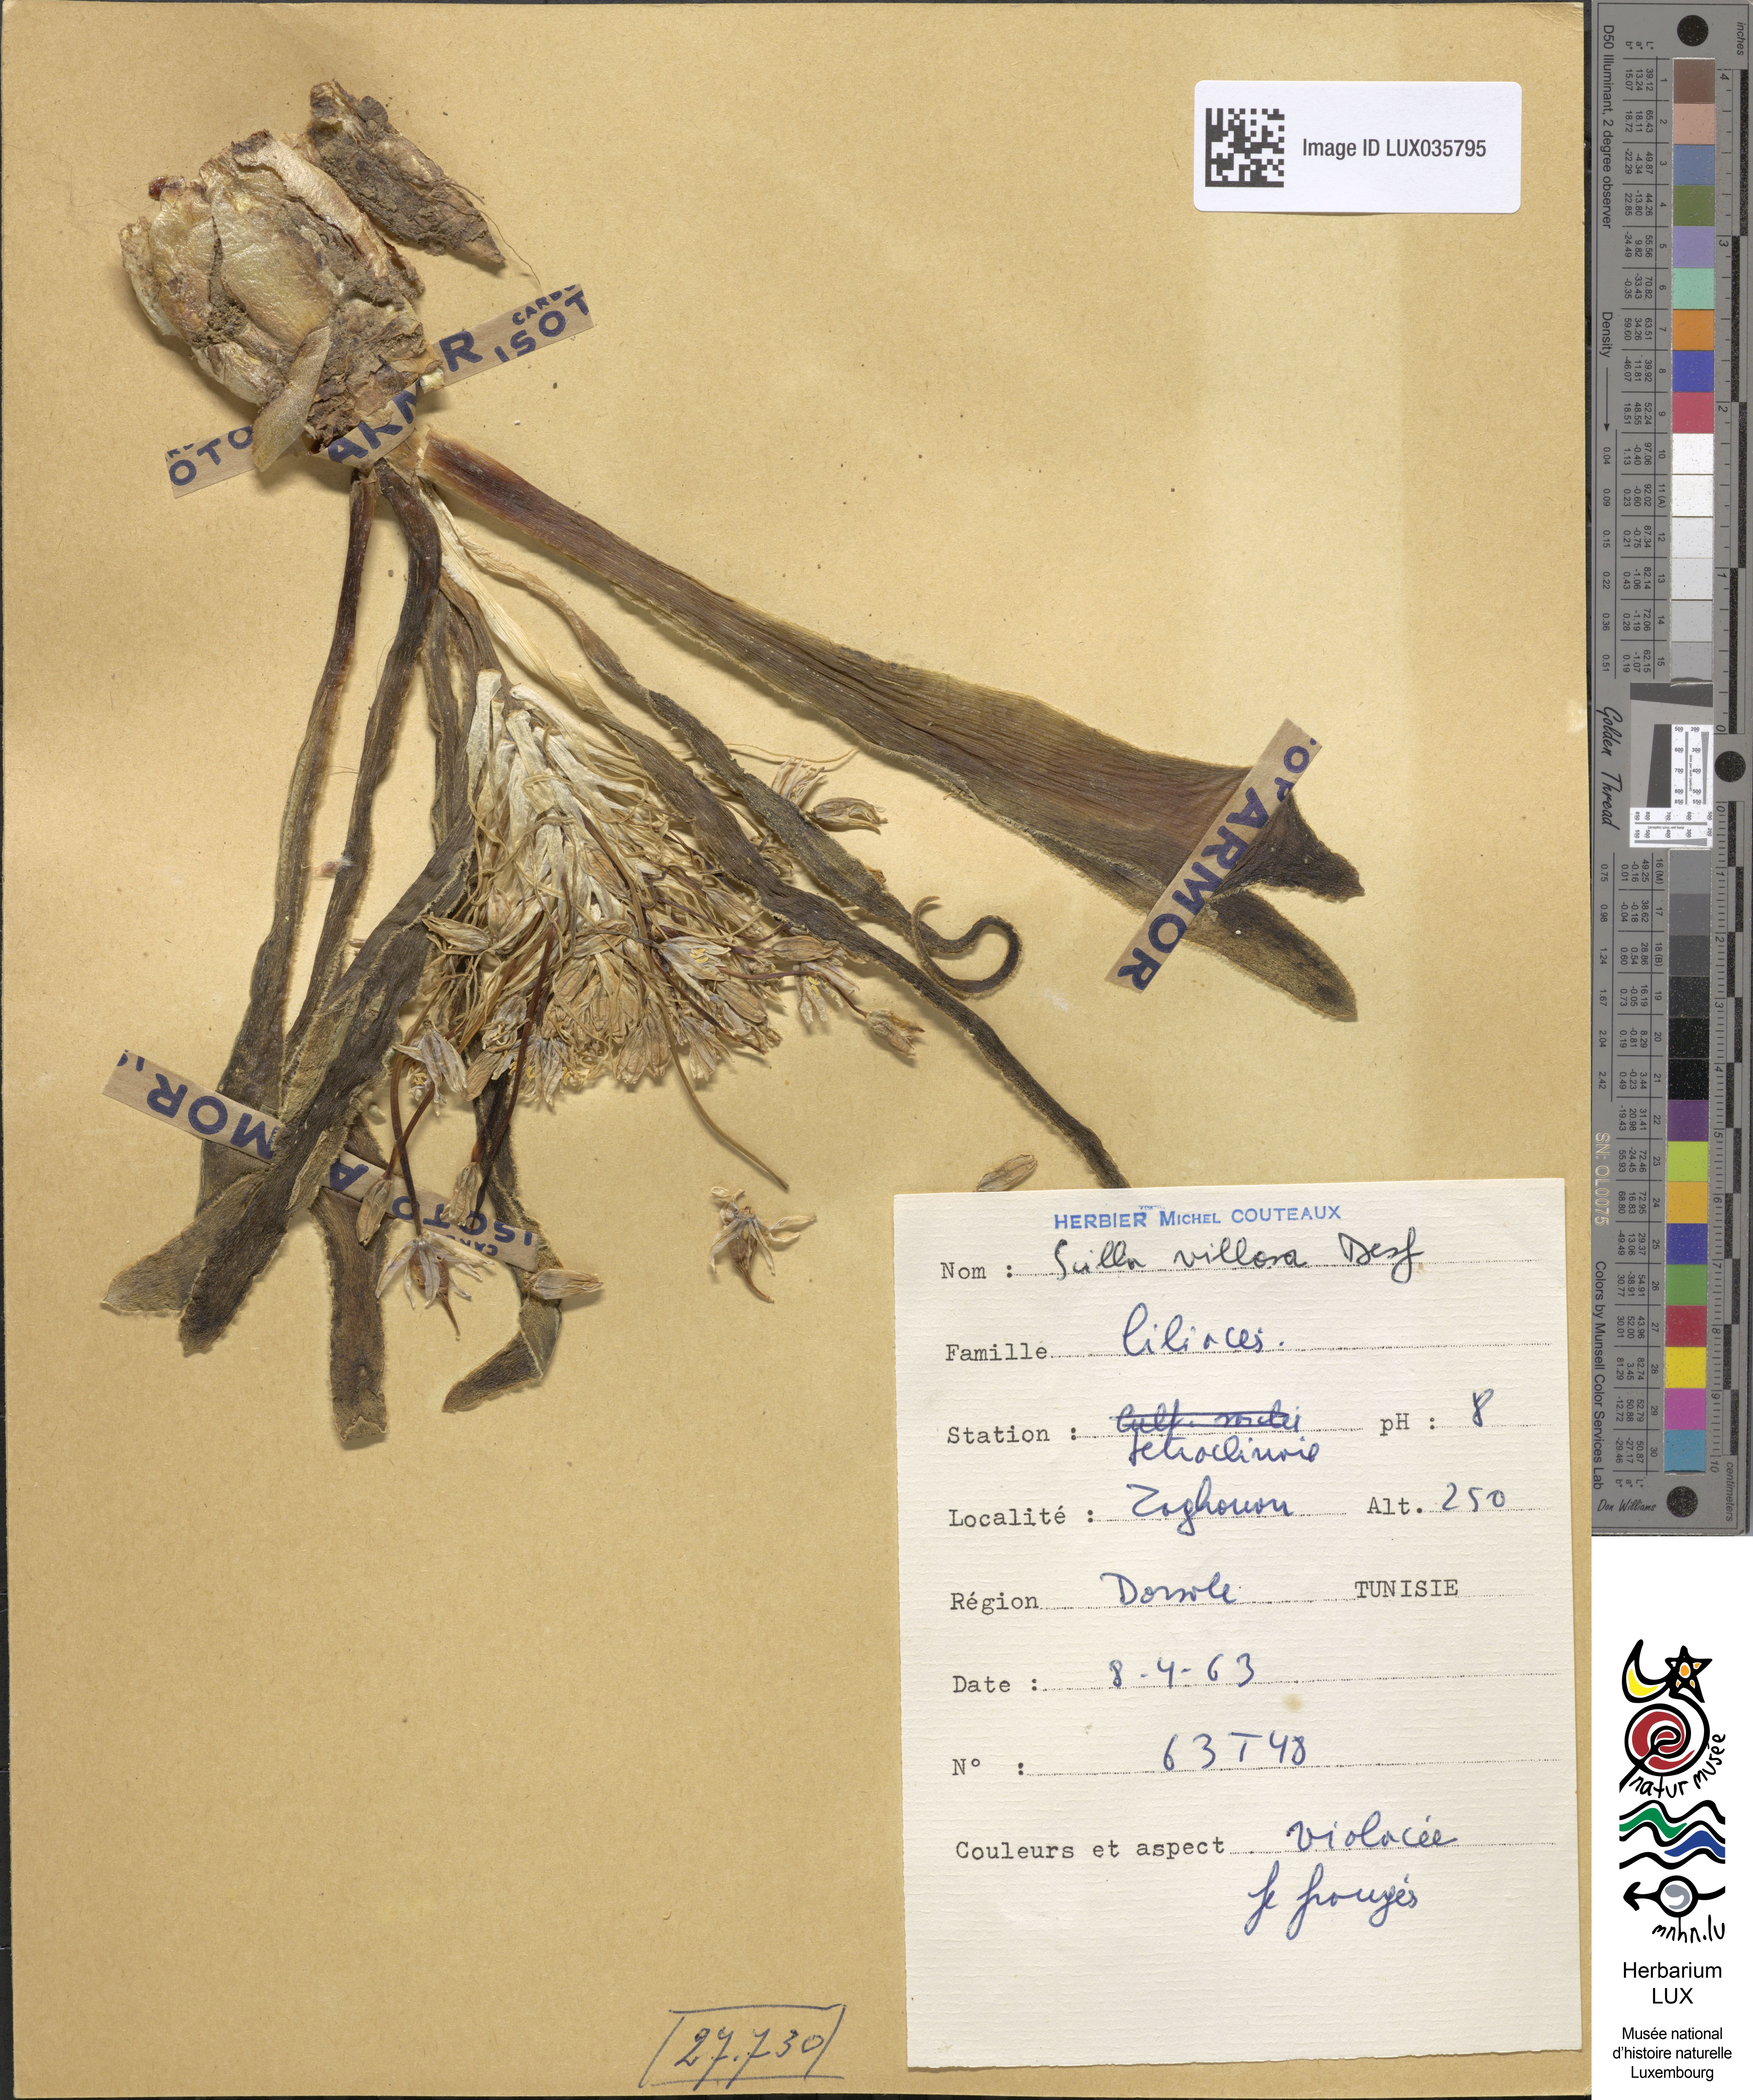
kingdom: Plantae
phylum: Tracheophyta
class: Liliopsida
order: Asparagales
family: Asparagaceae
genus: Scilla
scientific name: Scilla villosa
